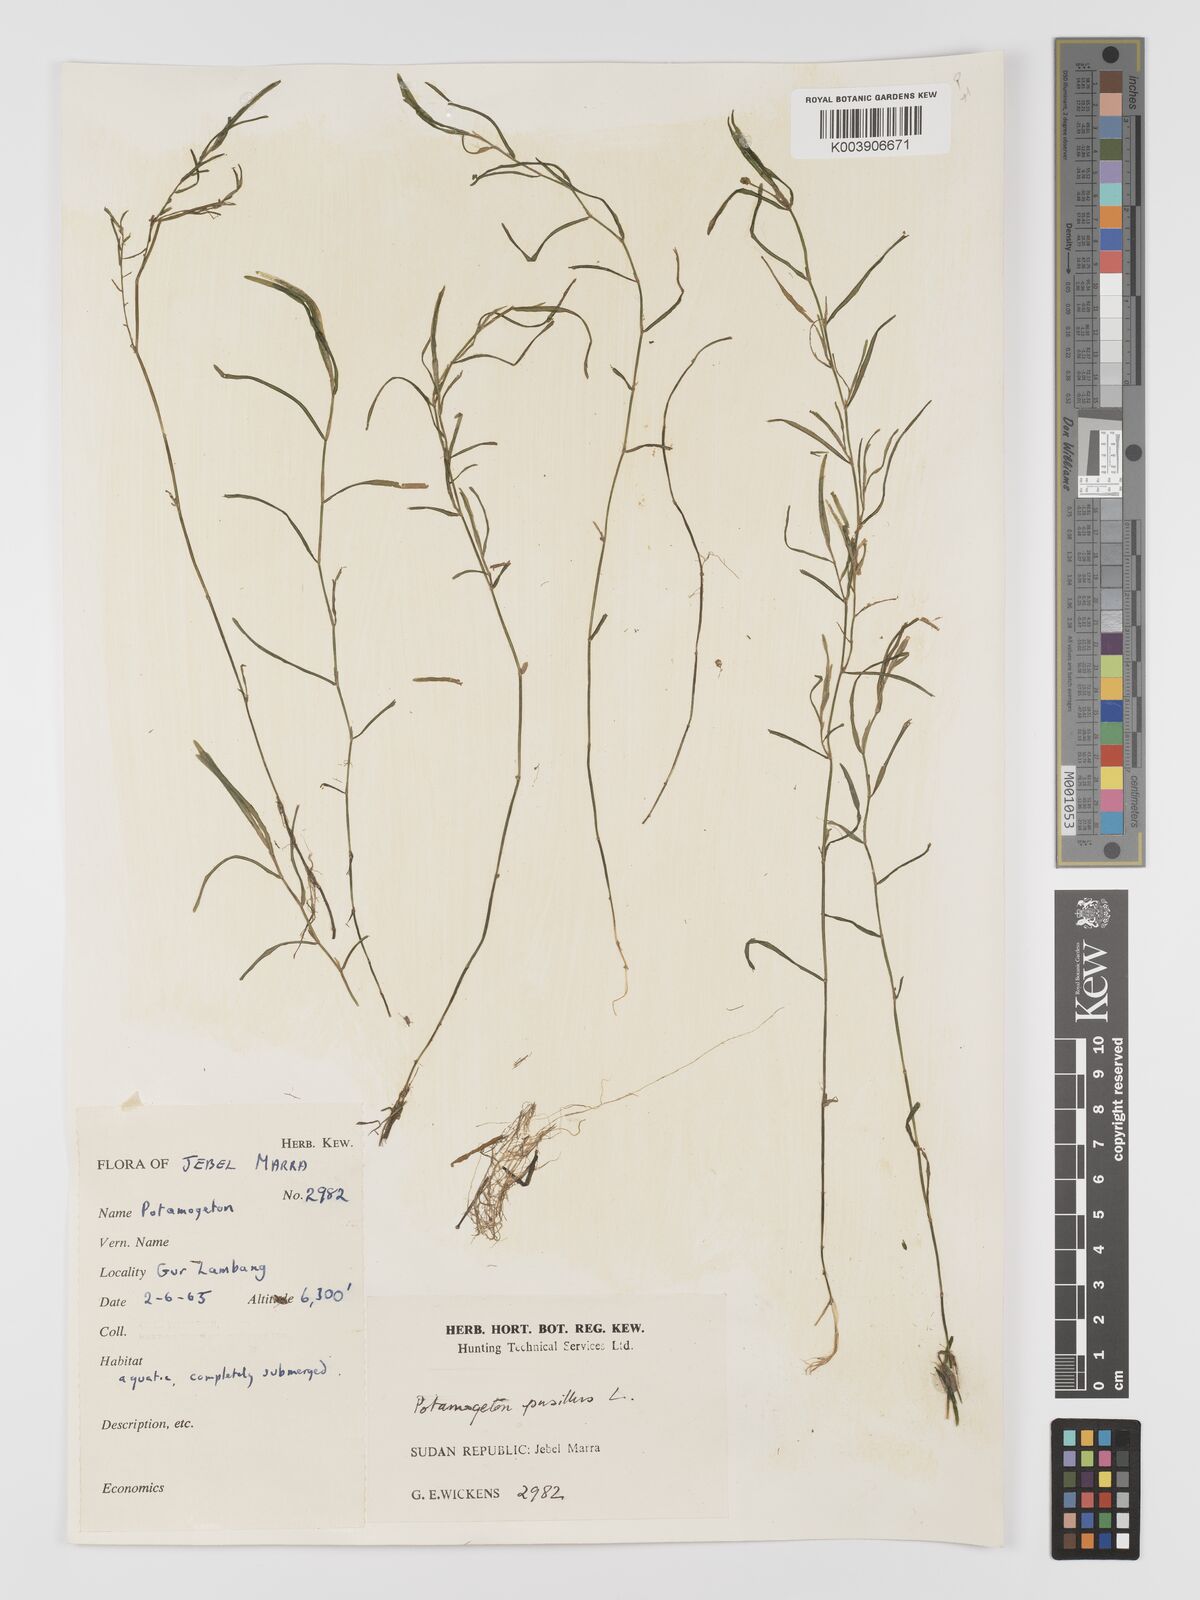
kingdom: Plantae
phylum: Tracheophyta
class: Liliopsida
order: Alismatales
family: Potamogetonaceae
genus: Potamogeton
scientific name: Potamogeton pusillus
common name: Lesser pondweed
